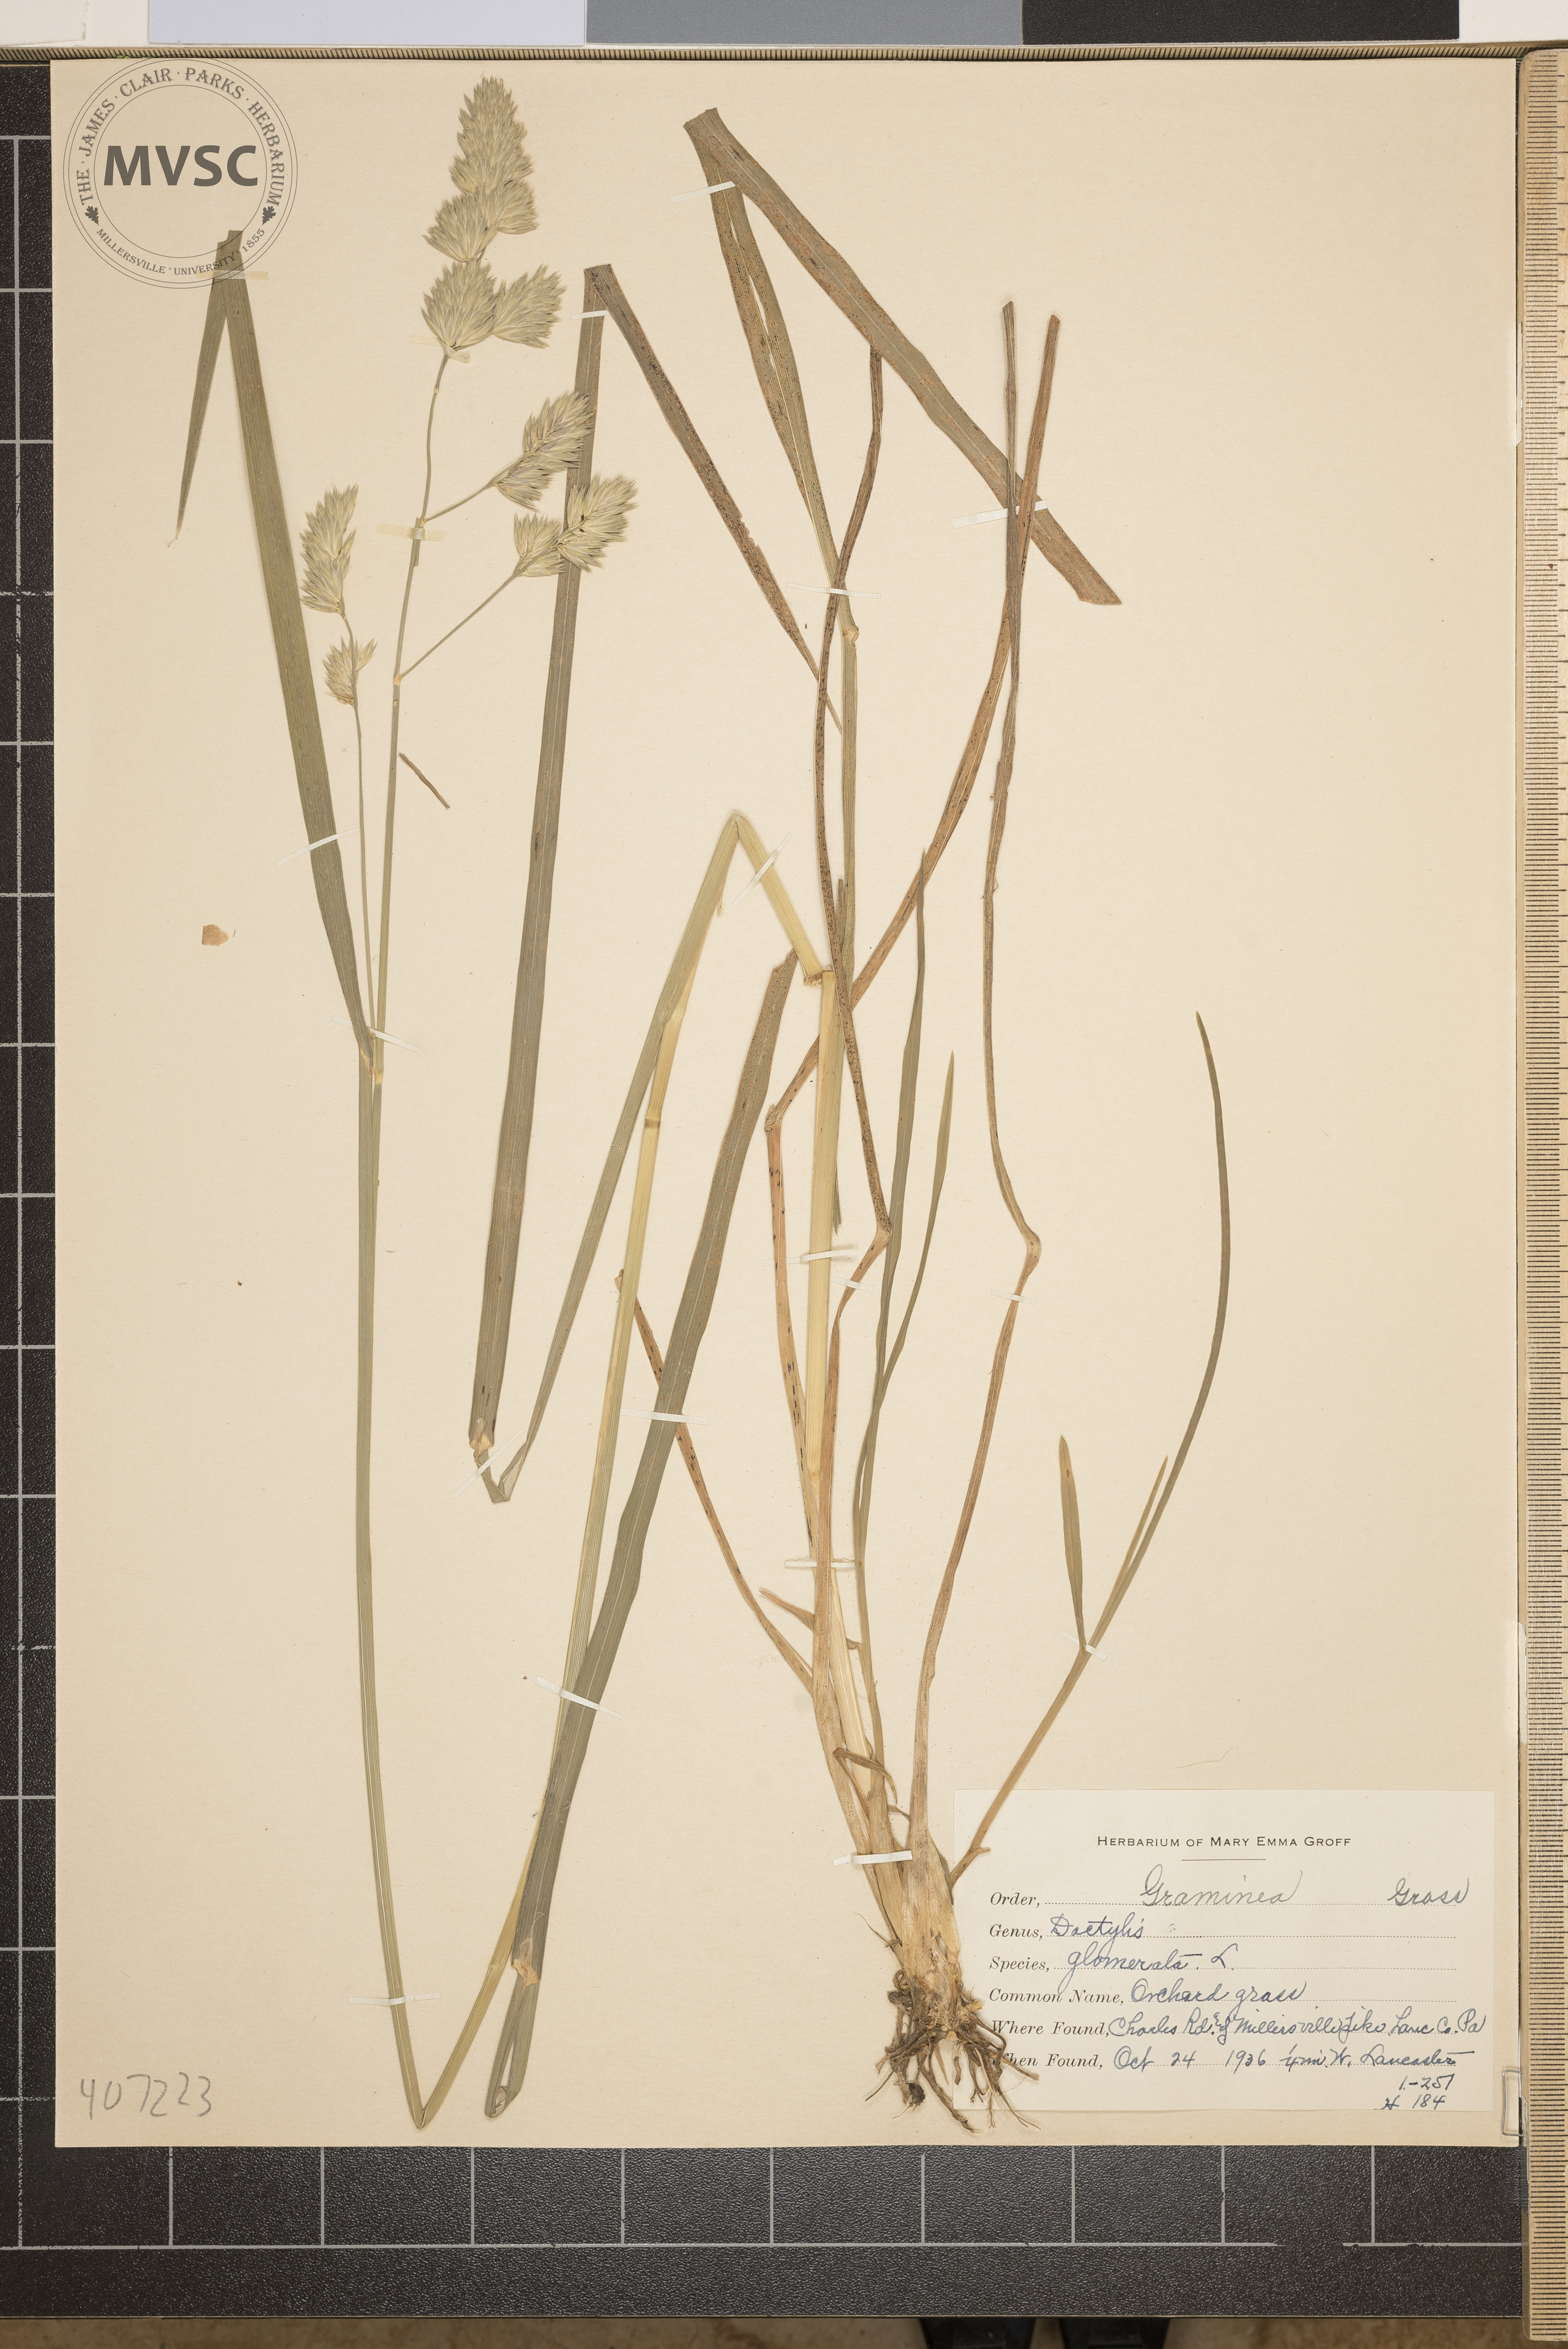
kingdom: Plantae
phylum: Tracheophyta
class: Liliopsida
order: Poales
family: Poaceae
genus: Dactylis
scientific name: Dactylis glomerata
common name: Orchardgrass
